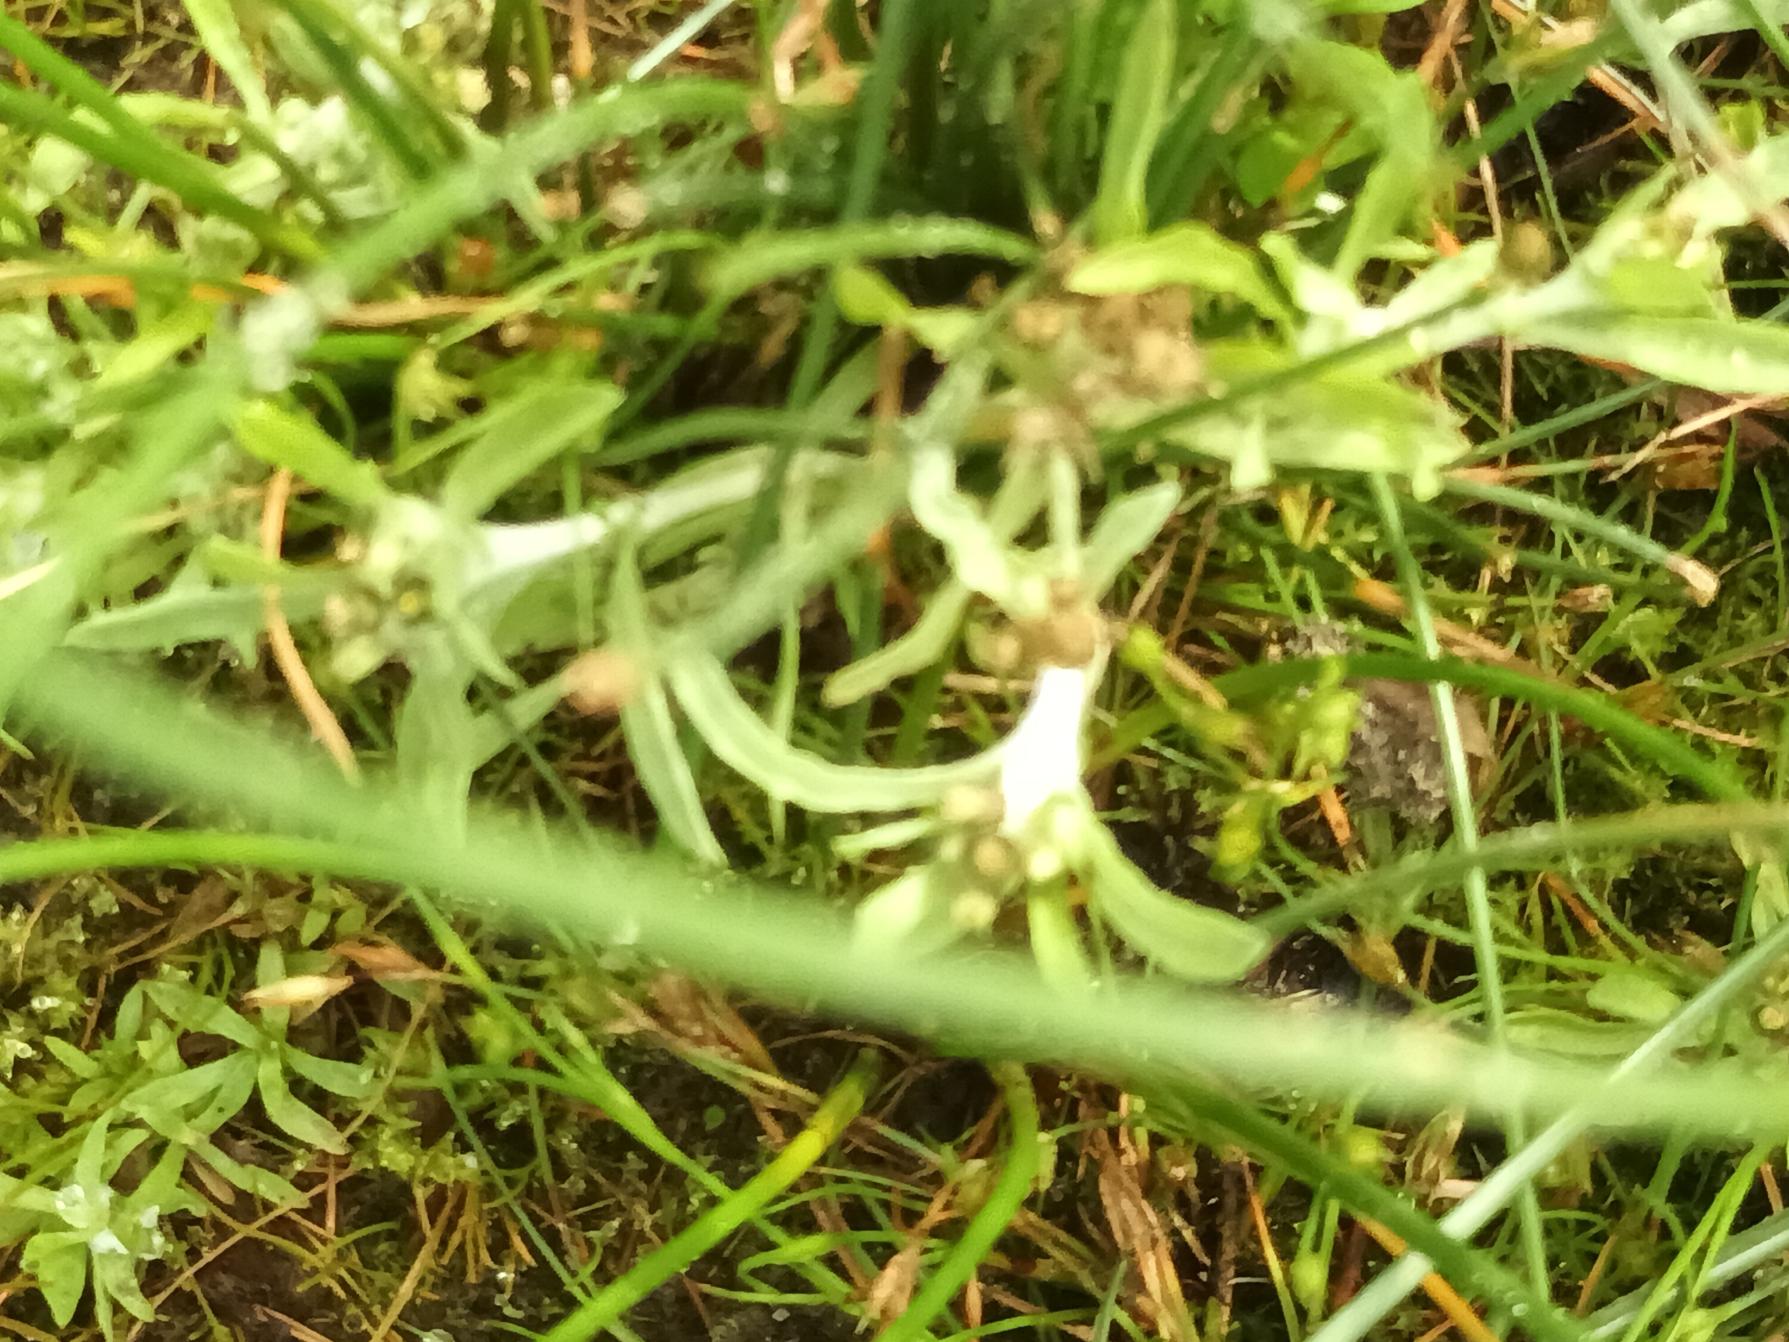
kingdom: Plantae
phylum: Tracheophyta
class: Magnoliopsida
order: Asterales
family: Asteraceae
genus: Gnaphalium
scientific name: Gnaphalium uliginosum
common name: Sump-evighedsblomst
